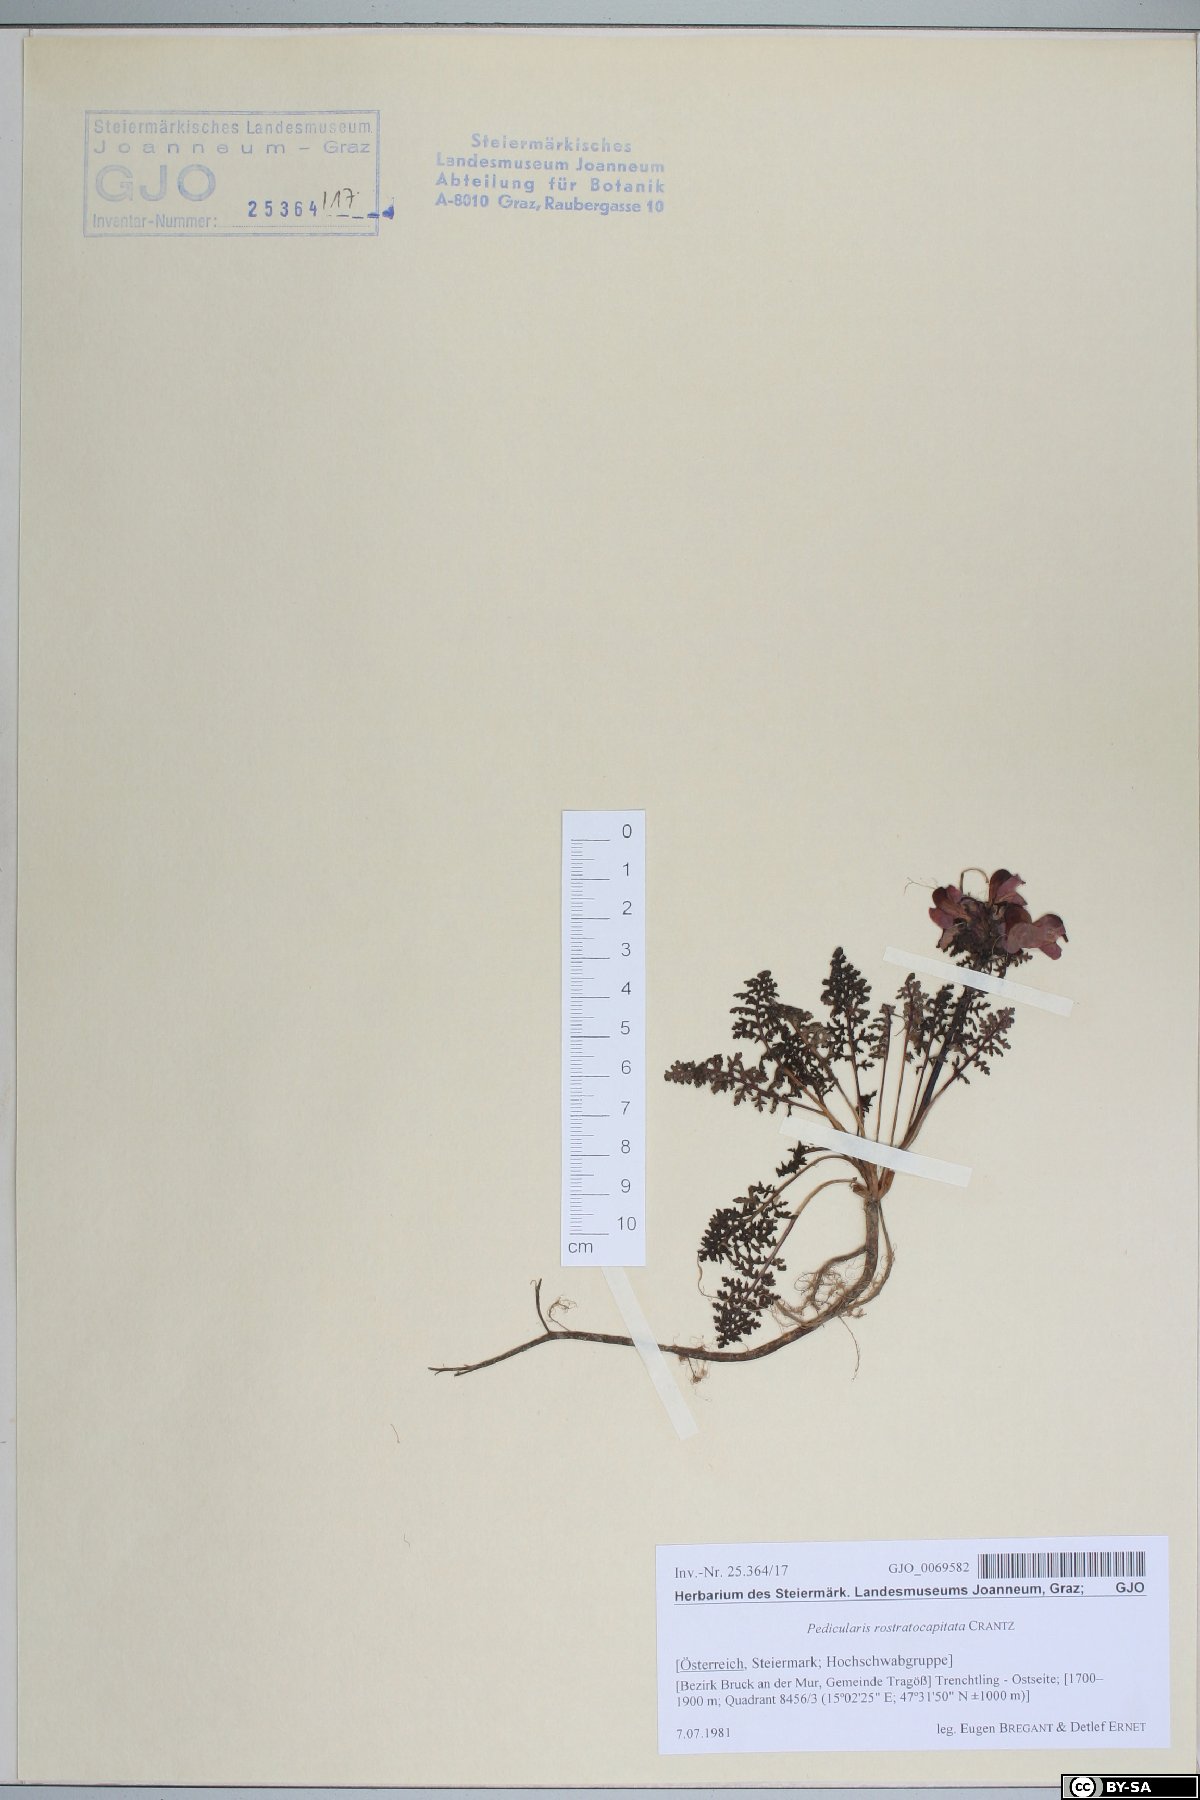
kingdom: Plantae
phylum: Tracheophyta
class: Magnoliopsida
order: Lamiales
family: Orobanchaceae
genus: Pedicularis
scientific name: Pedicularis rostratocapitata
